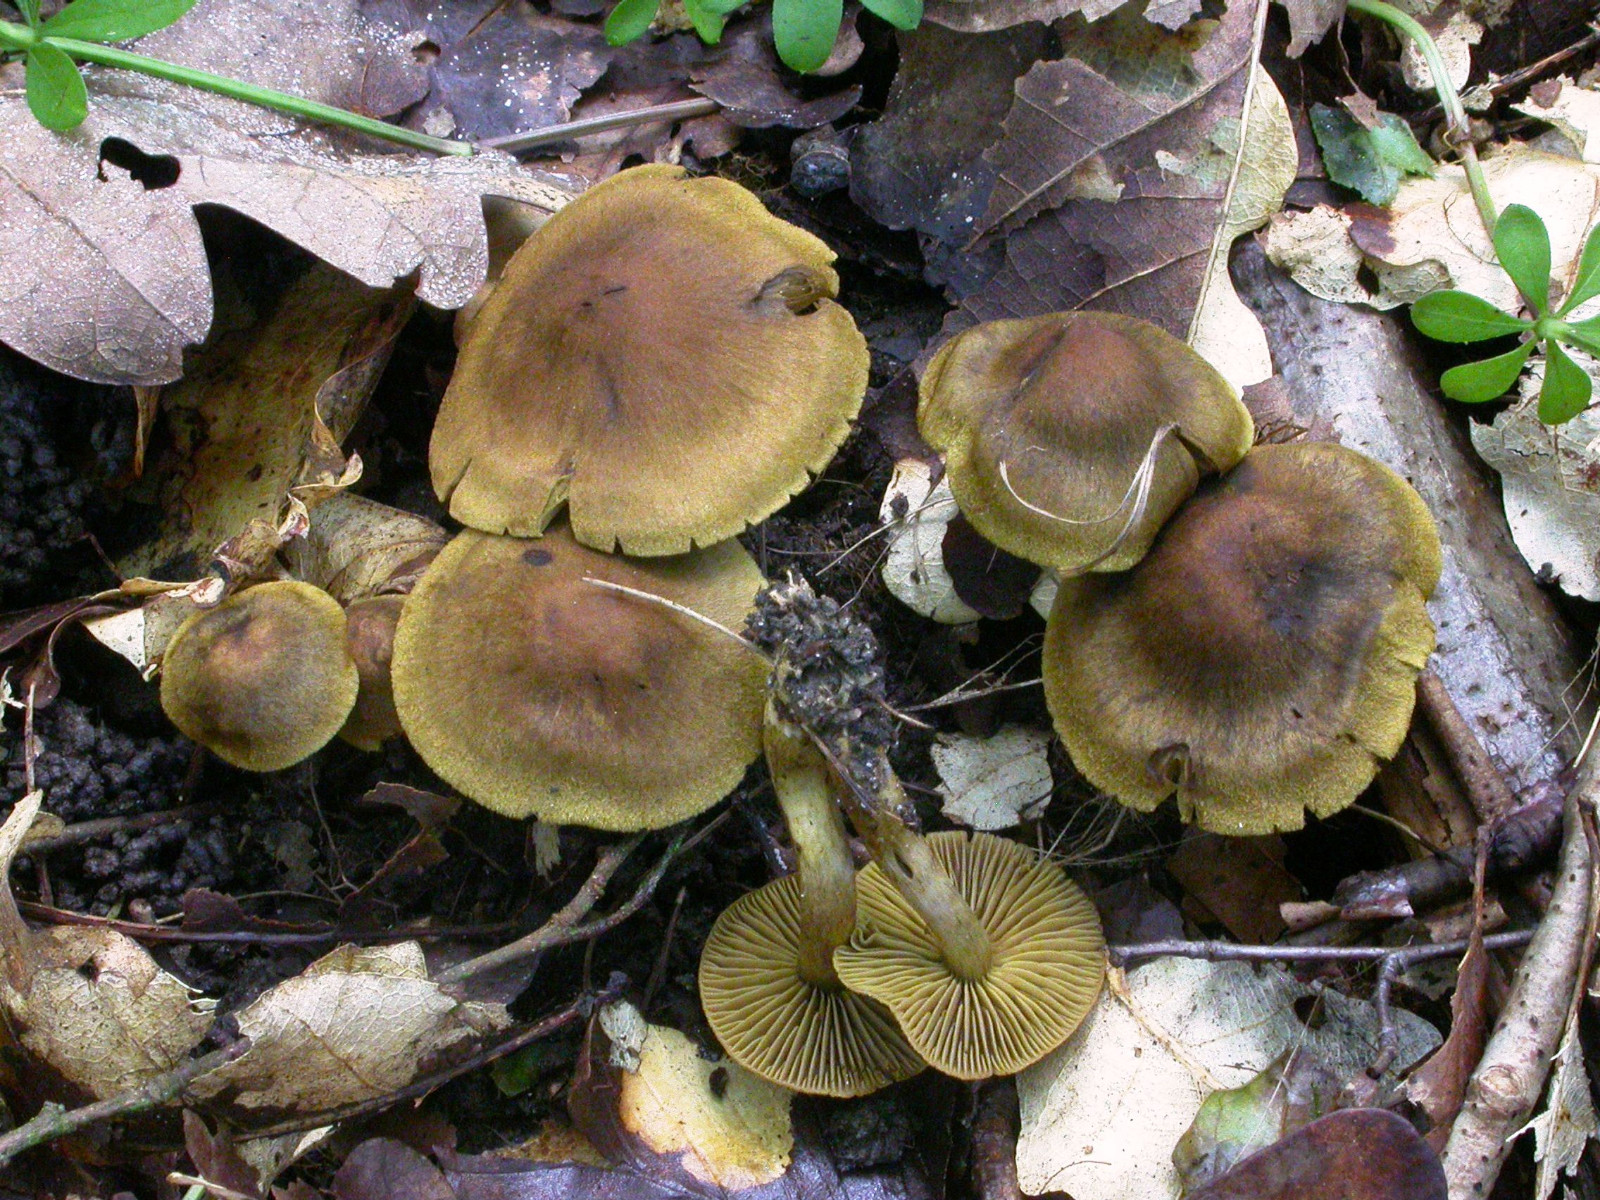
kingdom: Fungi
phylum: Basidiomycota
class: Agaricomycetes
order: Agaricales
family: Cortinariaceae
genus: Cortinarius
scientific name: Cortinarius venetus
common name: olivengrøn slørhat
